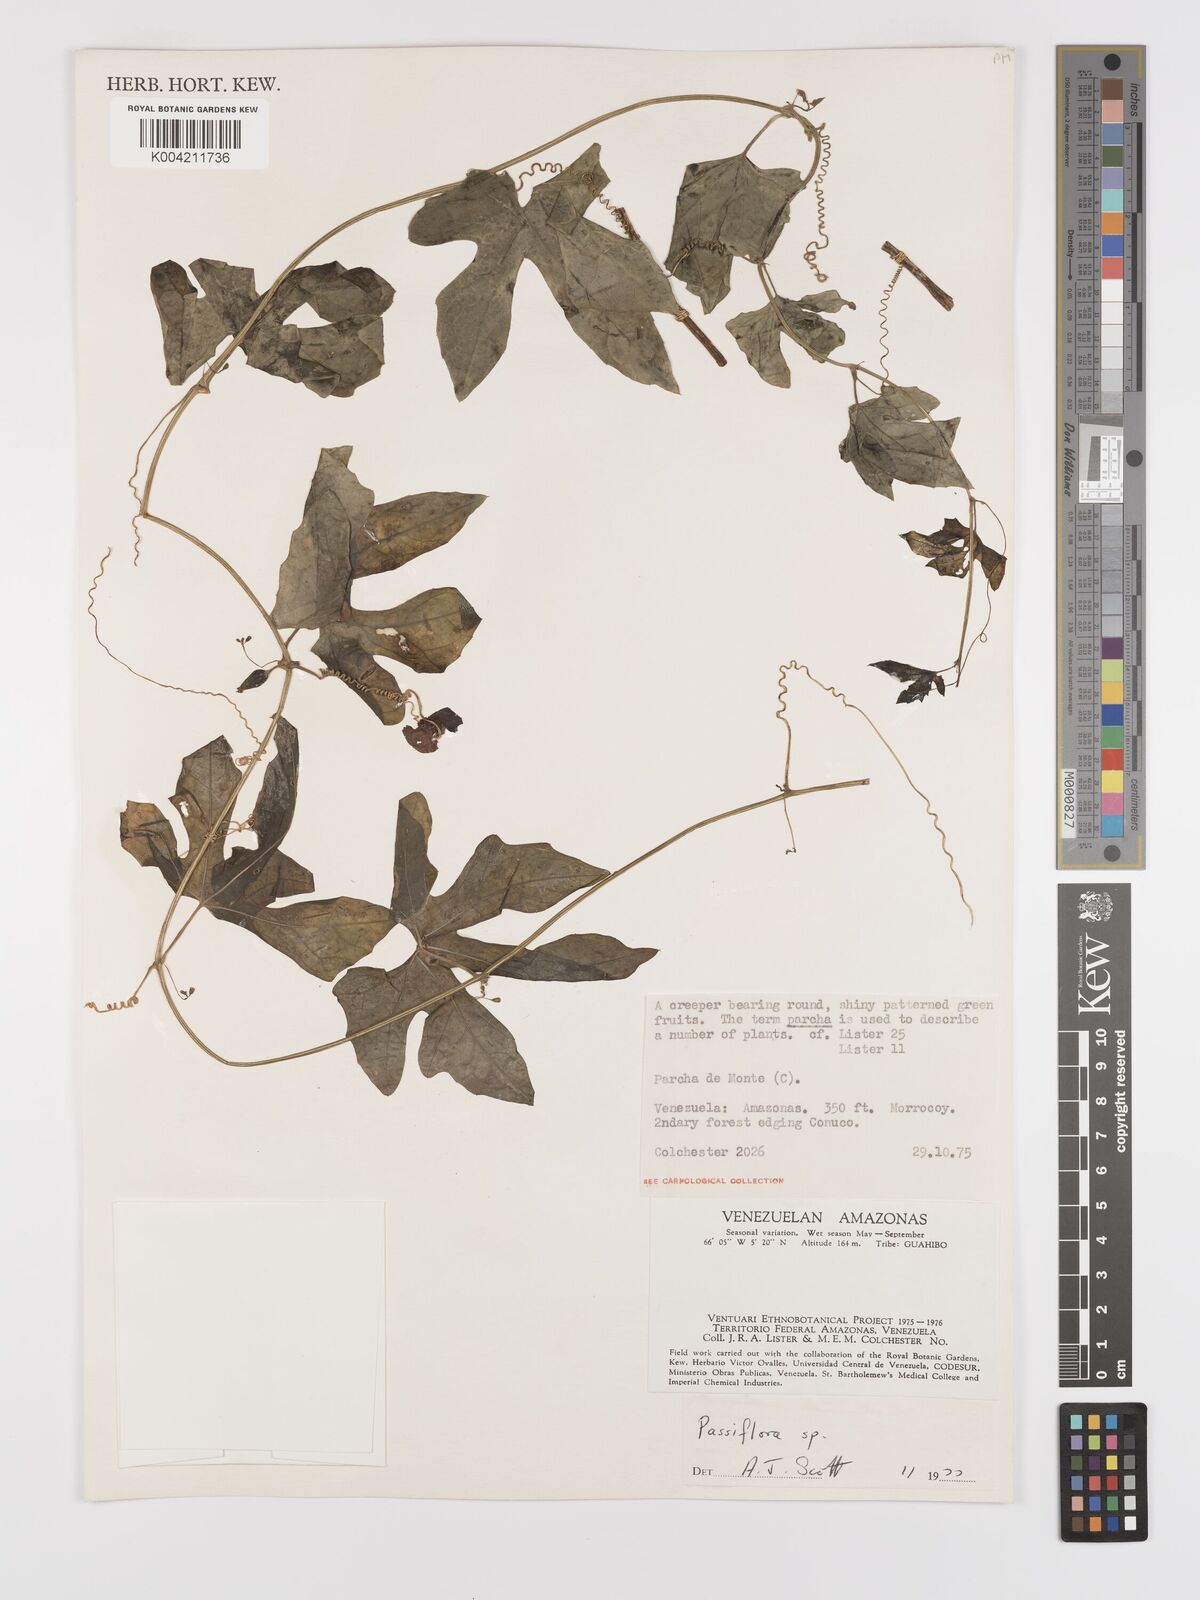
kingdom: Plantae
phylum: Tracheophyta
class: Magnoliopsida
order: Cucurbitales
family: Cucurbitaceae
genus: Melothria
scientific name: Melothria trilobata
